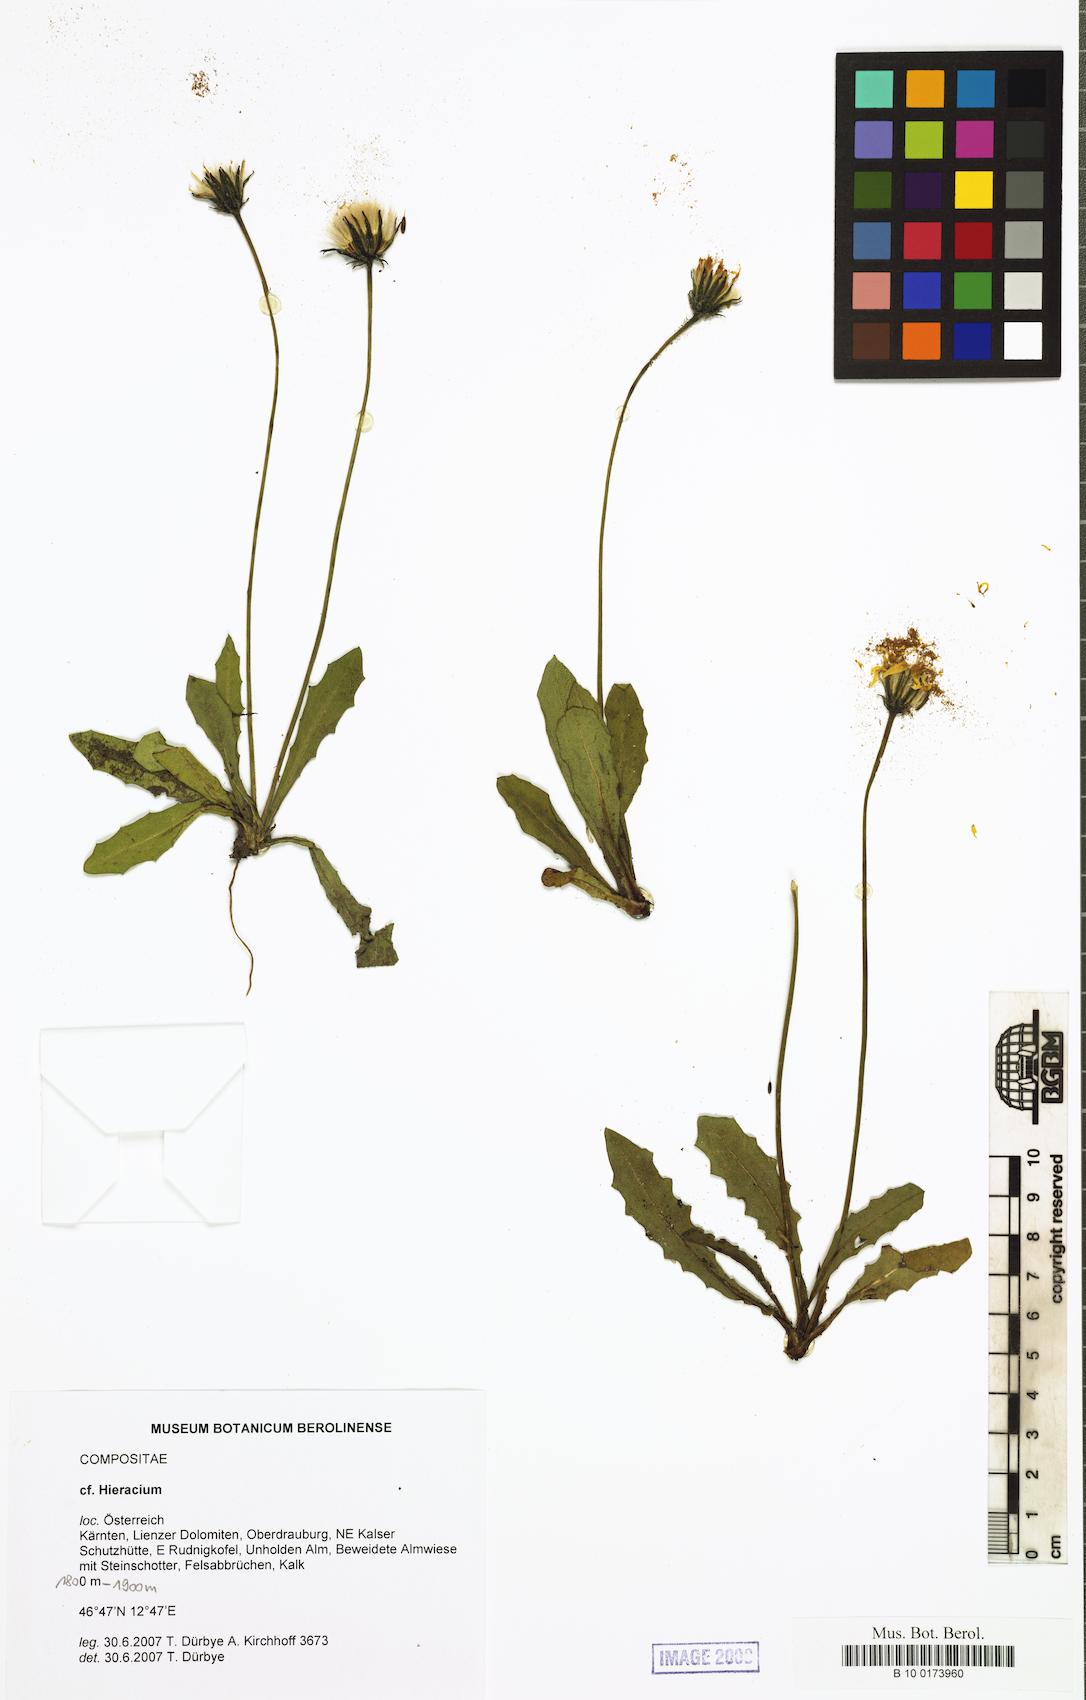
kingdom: Plantae
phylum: Tracheophyta
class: Magnoliopsida
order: Asterales
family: Asteraceae
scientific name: Asteraceae
